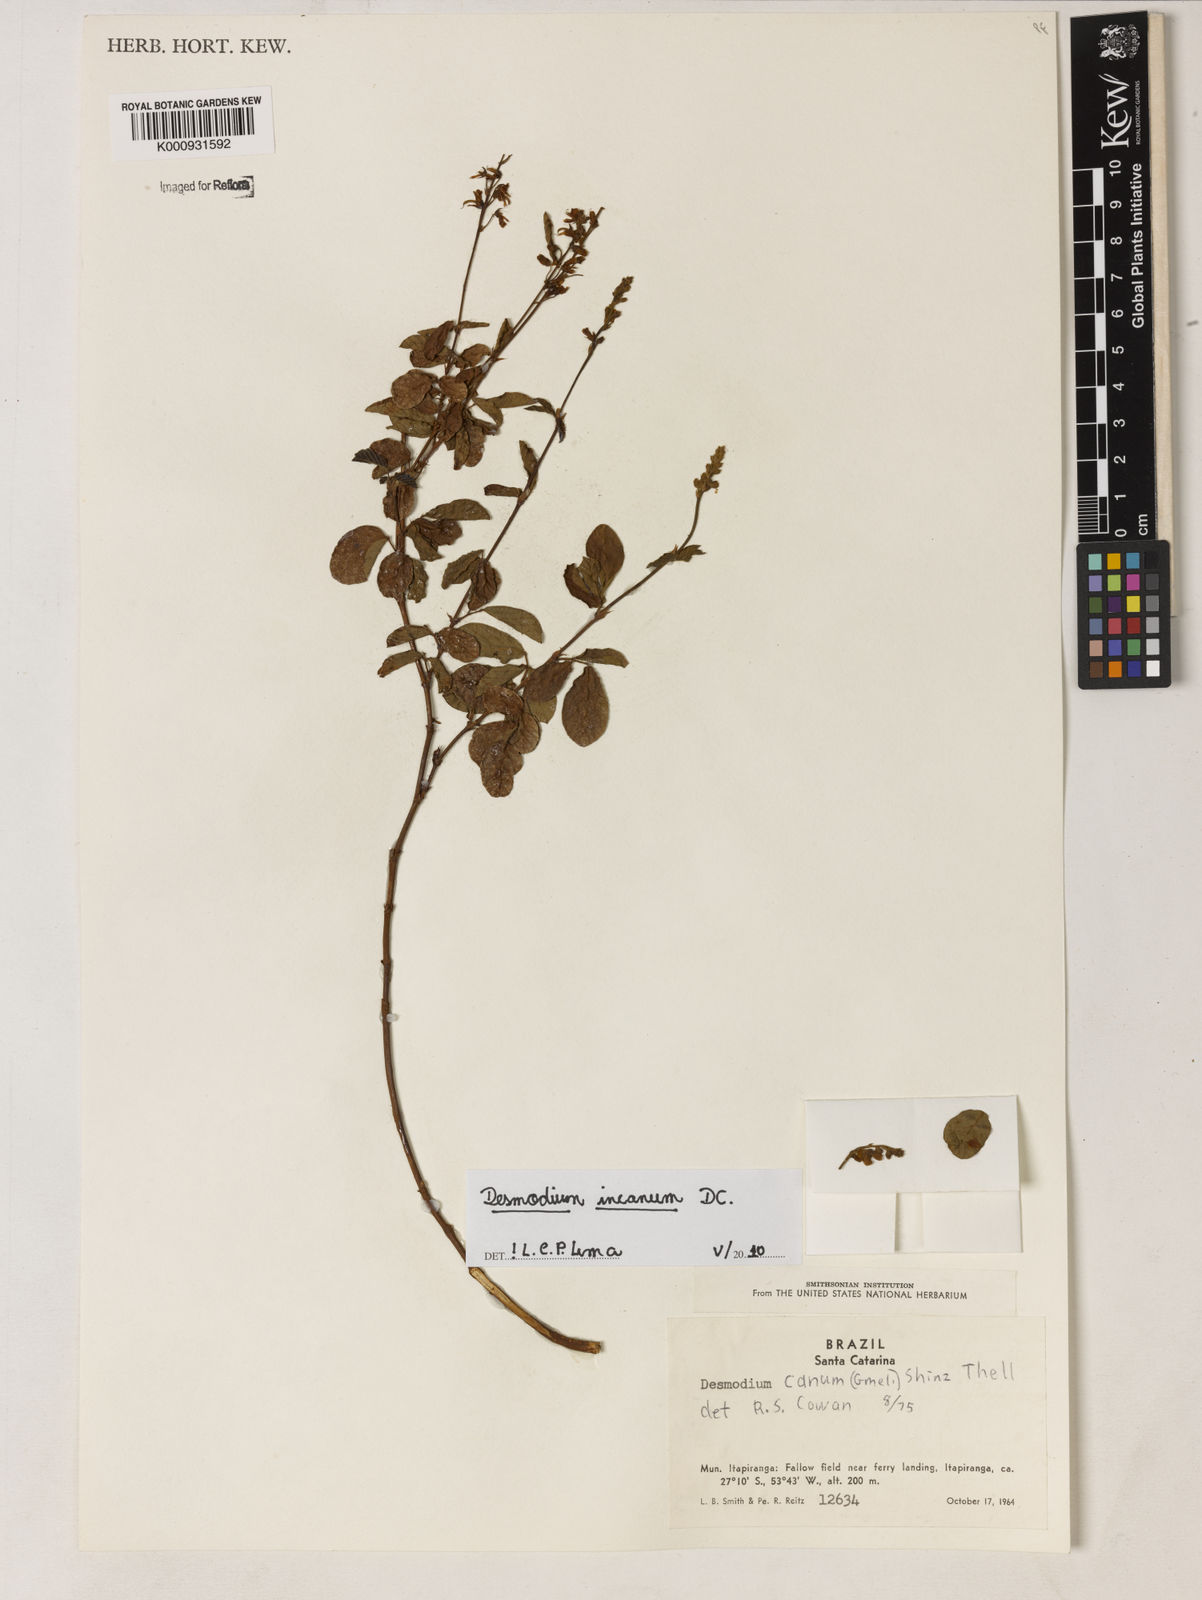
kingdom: Plantae
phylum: Tracheophyta
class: Magnoliopsida
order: Fabales
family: Fabaceae
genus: Desmodium
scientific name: Desmodium incanum
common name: Tickclover
